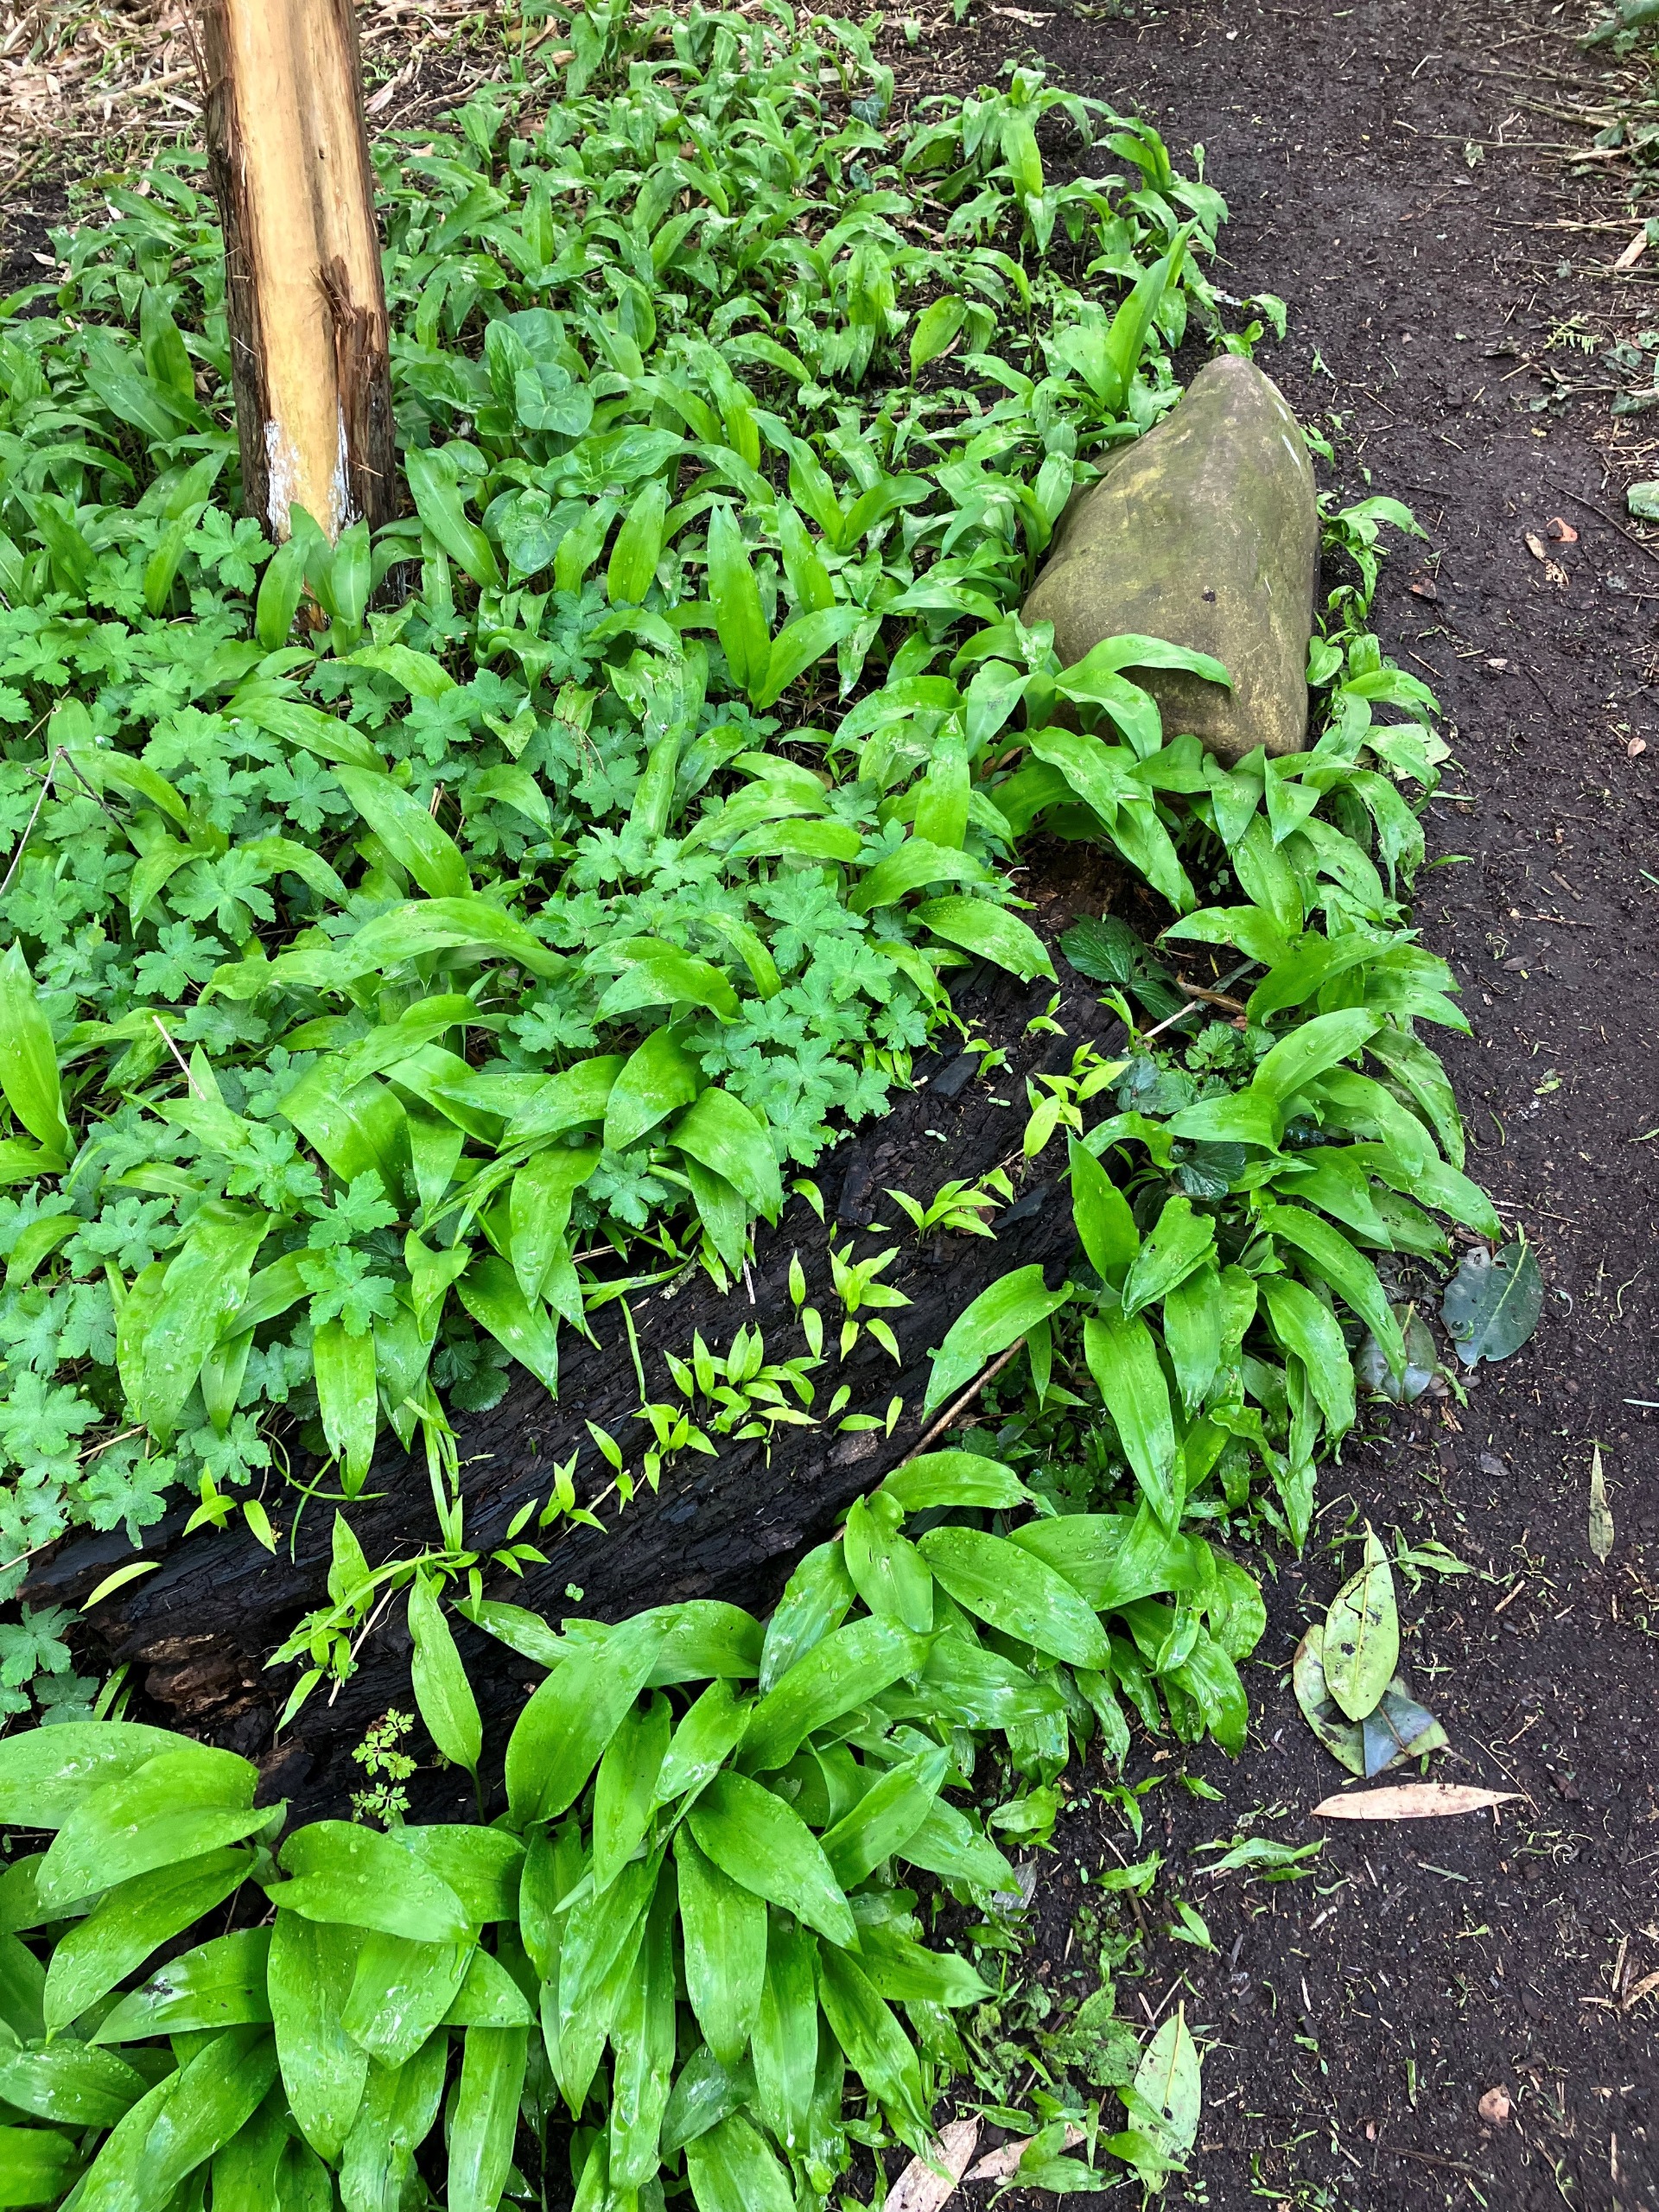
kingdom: Plantae
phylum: Tracheophyta
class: Liliopsida
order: Asparagales
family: Amaryllidaceae
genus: Allium
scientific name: Allium ursinum
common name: Rams-løg
